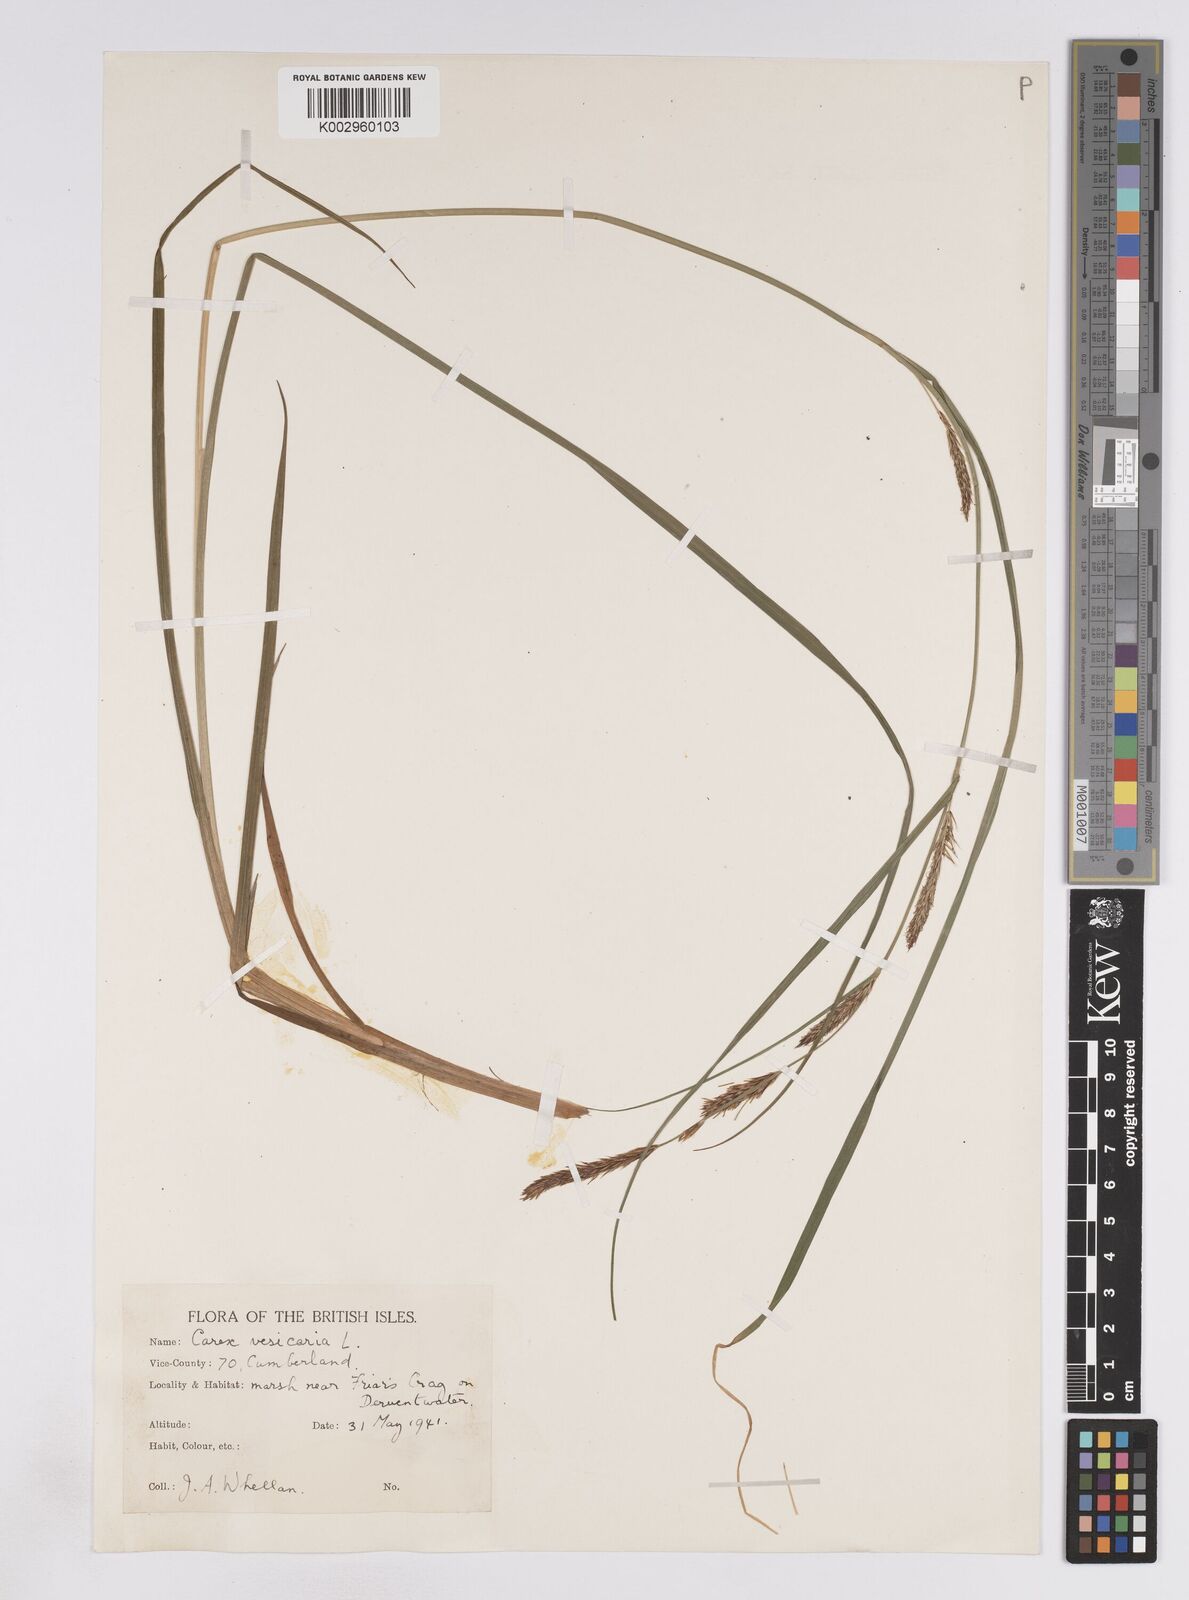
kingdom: Plantae
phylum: Tracheophyta
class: Liliopsida
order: Poales
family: Cyperaceae
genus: Carex
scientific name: Carex vesicaria
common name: Bladder-sedge
